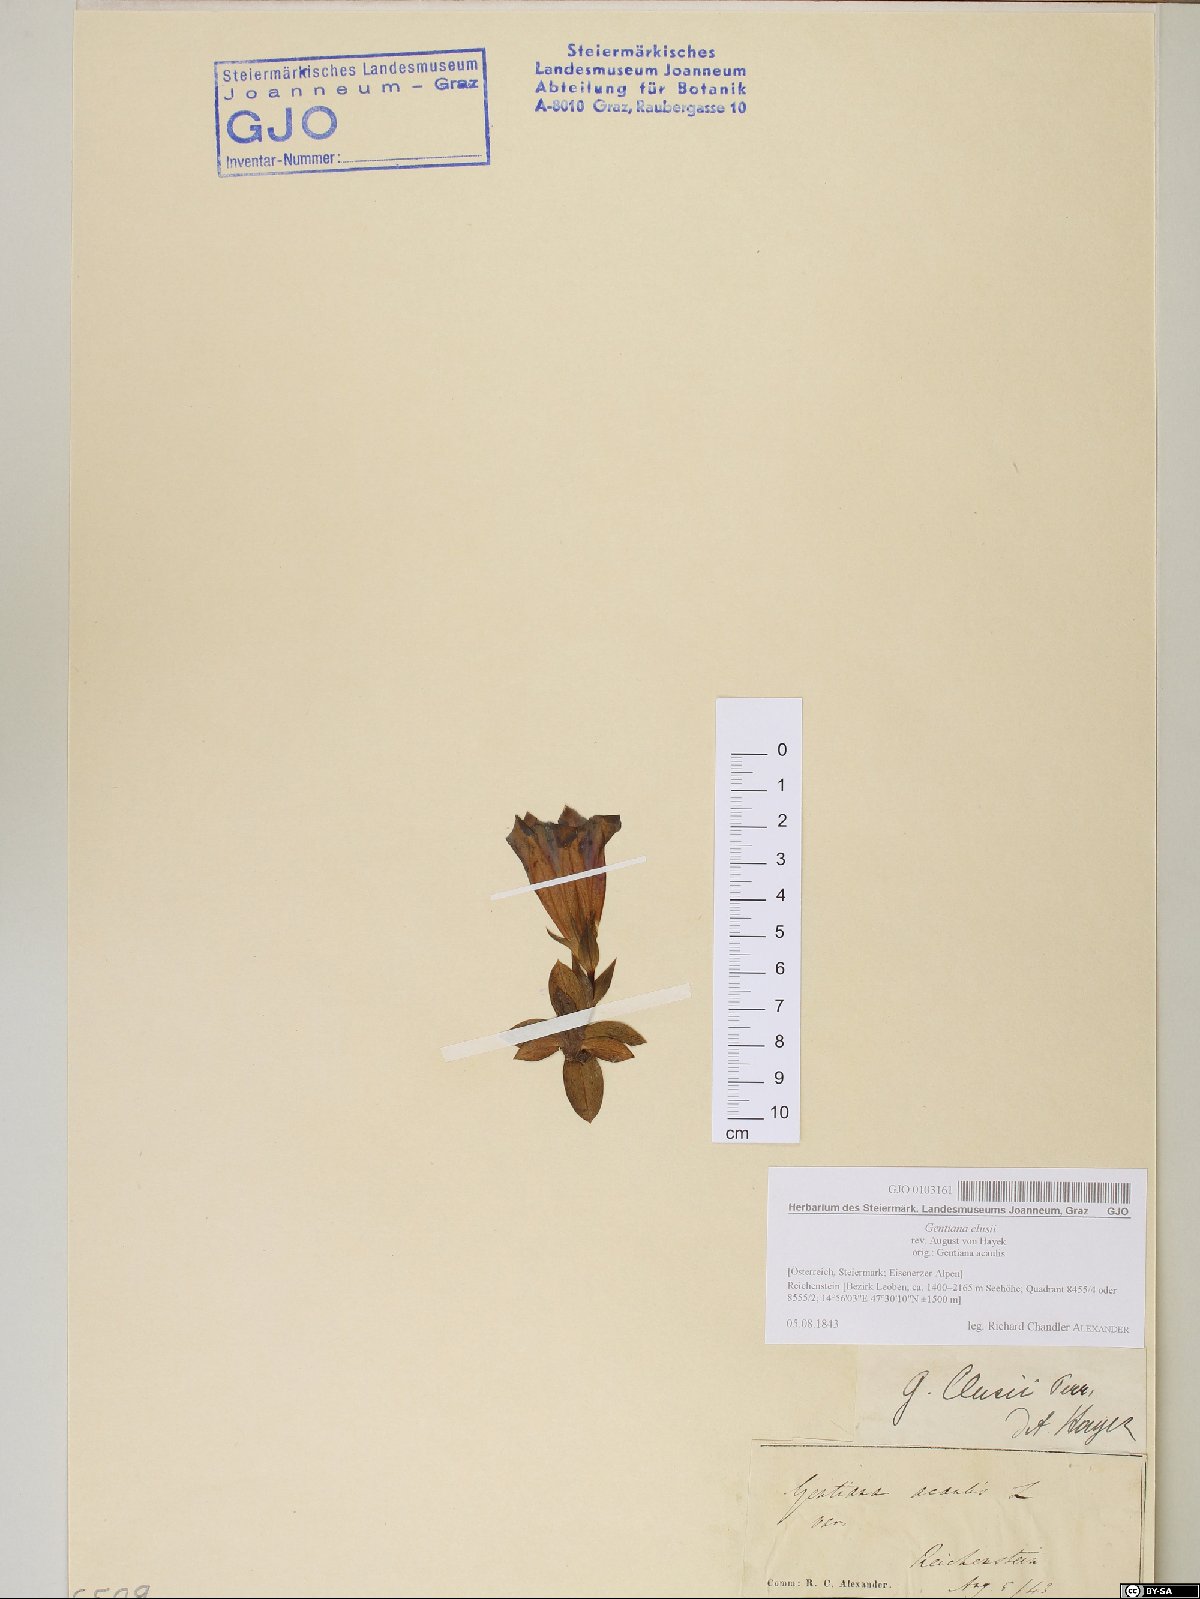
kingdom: Plantae
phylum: Tracheophyta
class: Magnoliopsida
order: Gentianales
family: Gentianaceae
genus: Gentiana
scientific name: Gentiana clusii
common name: Trumpet gentian
